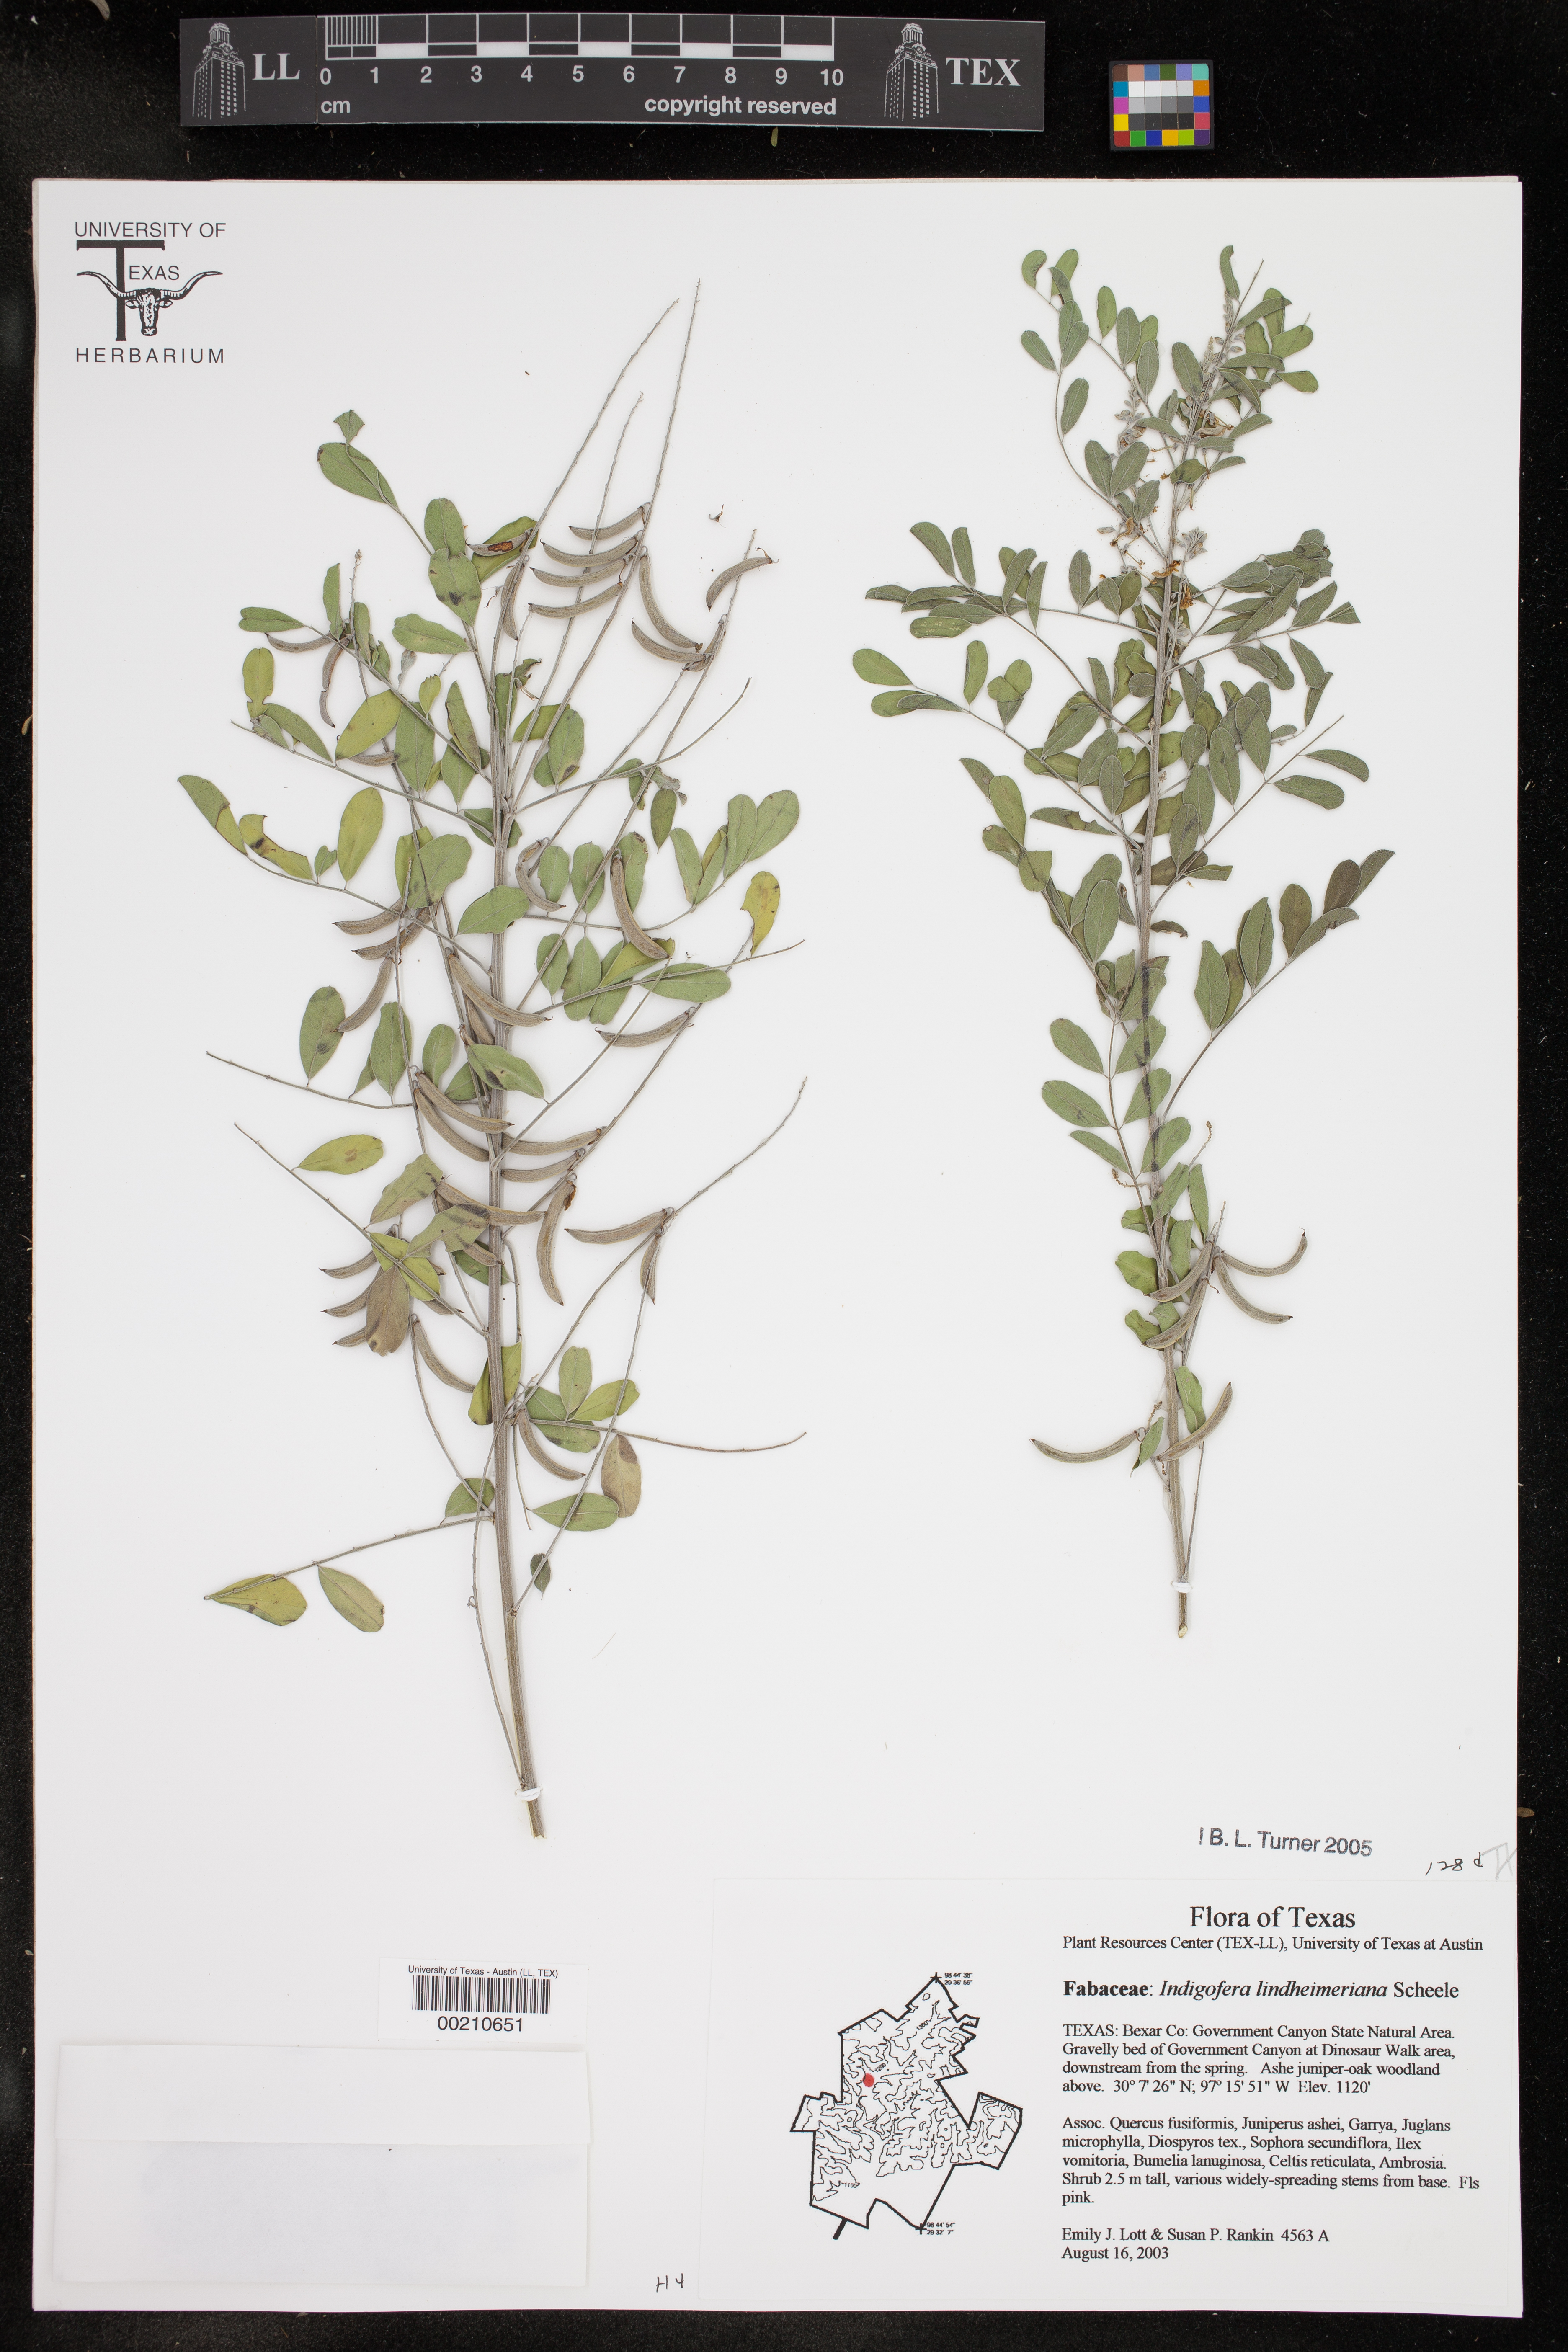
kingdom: Plantae
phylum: Tracheophyta
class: Magnoliopsida
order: Fabales
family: Fabaceae
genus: Indigofera
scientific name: Indigofera lindheimeriana
